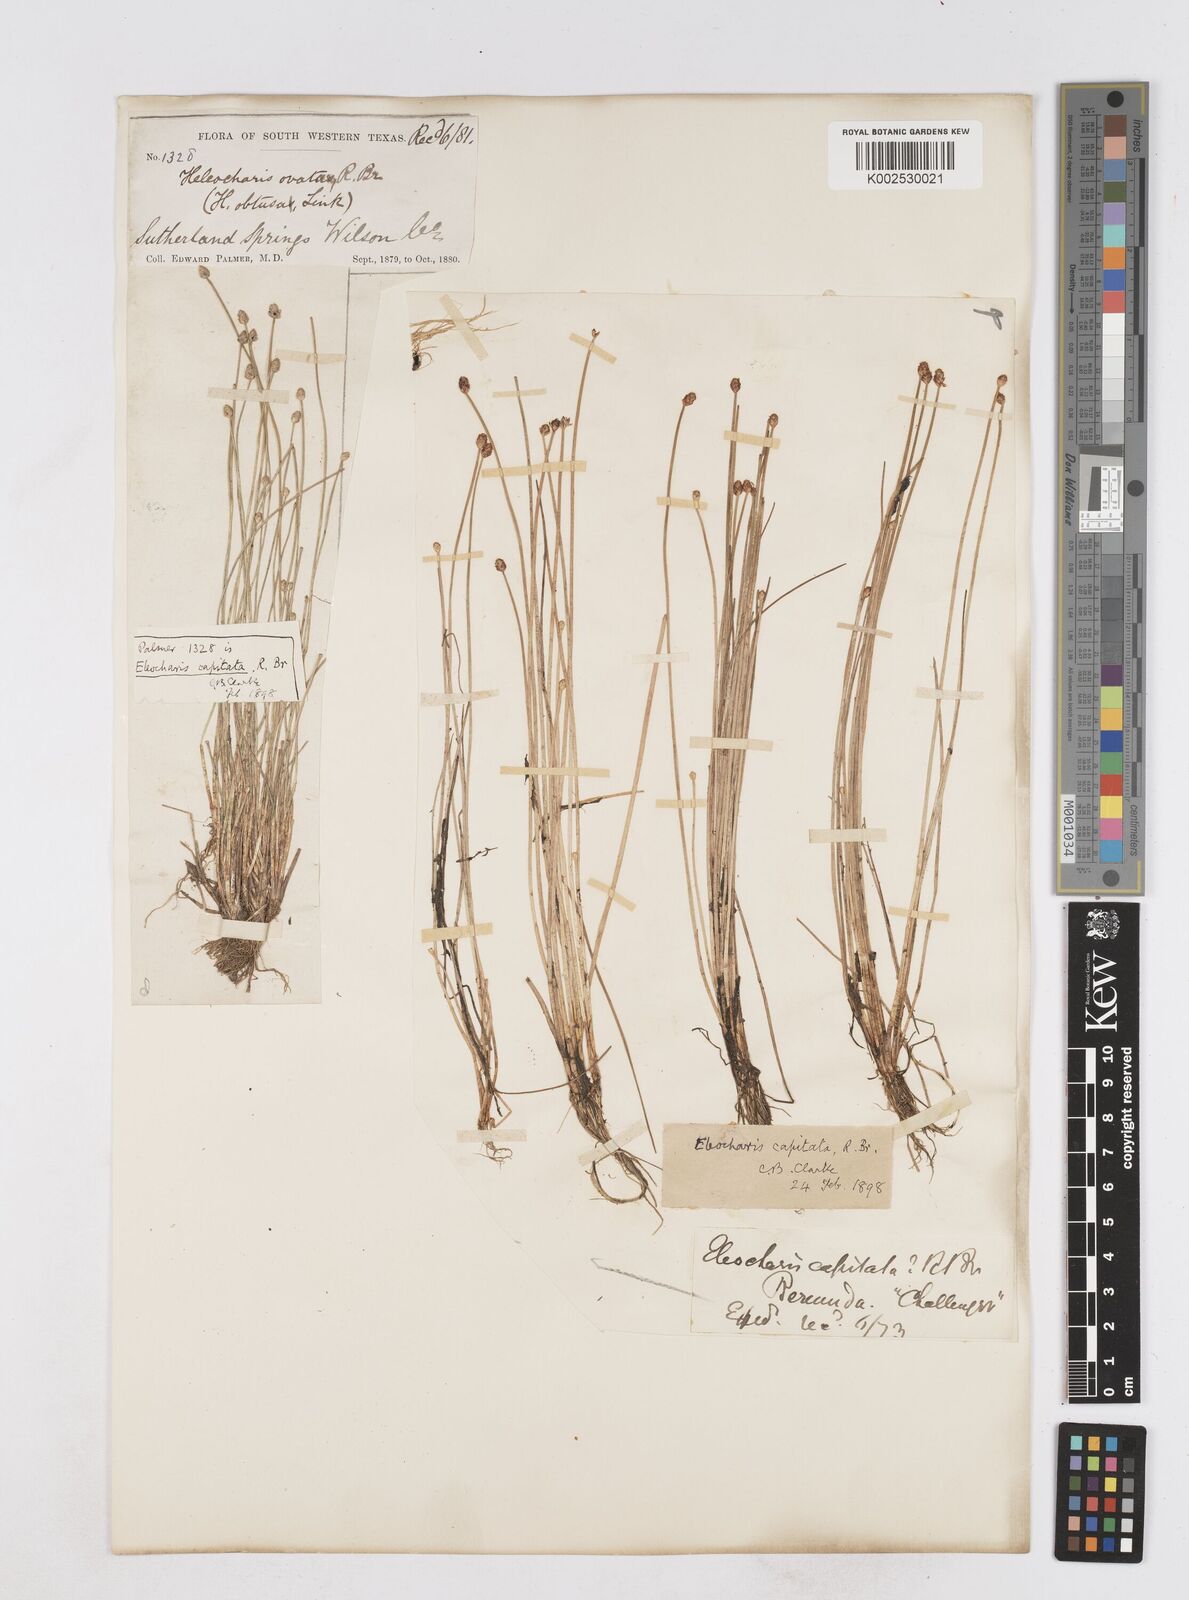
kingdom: Plantae
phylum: Tracheophyta
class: Liliopsida
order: Poales
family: Cyperaceae
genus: Eleocharis
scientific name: Eleocharis geniculata
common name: Canada spikesedge
